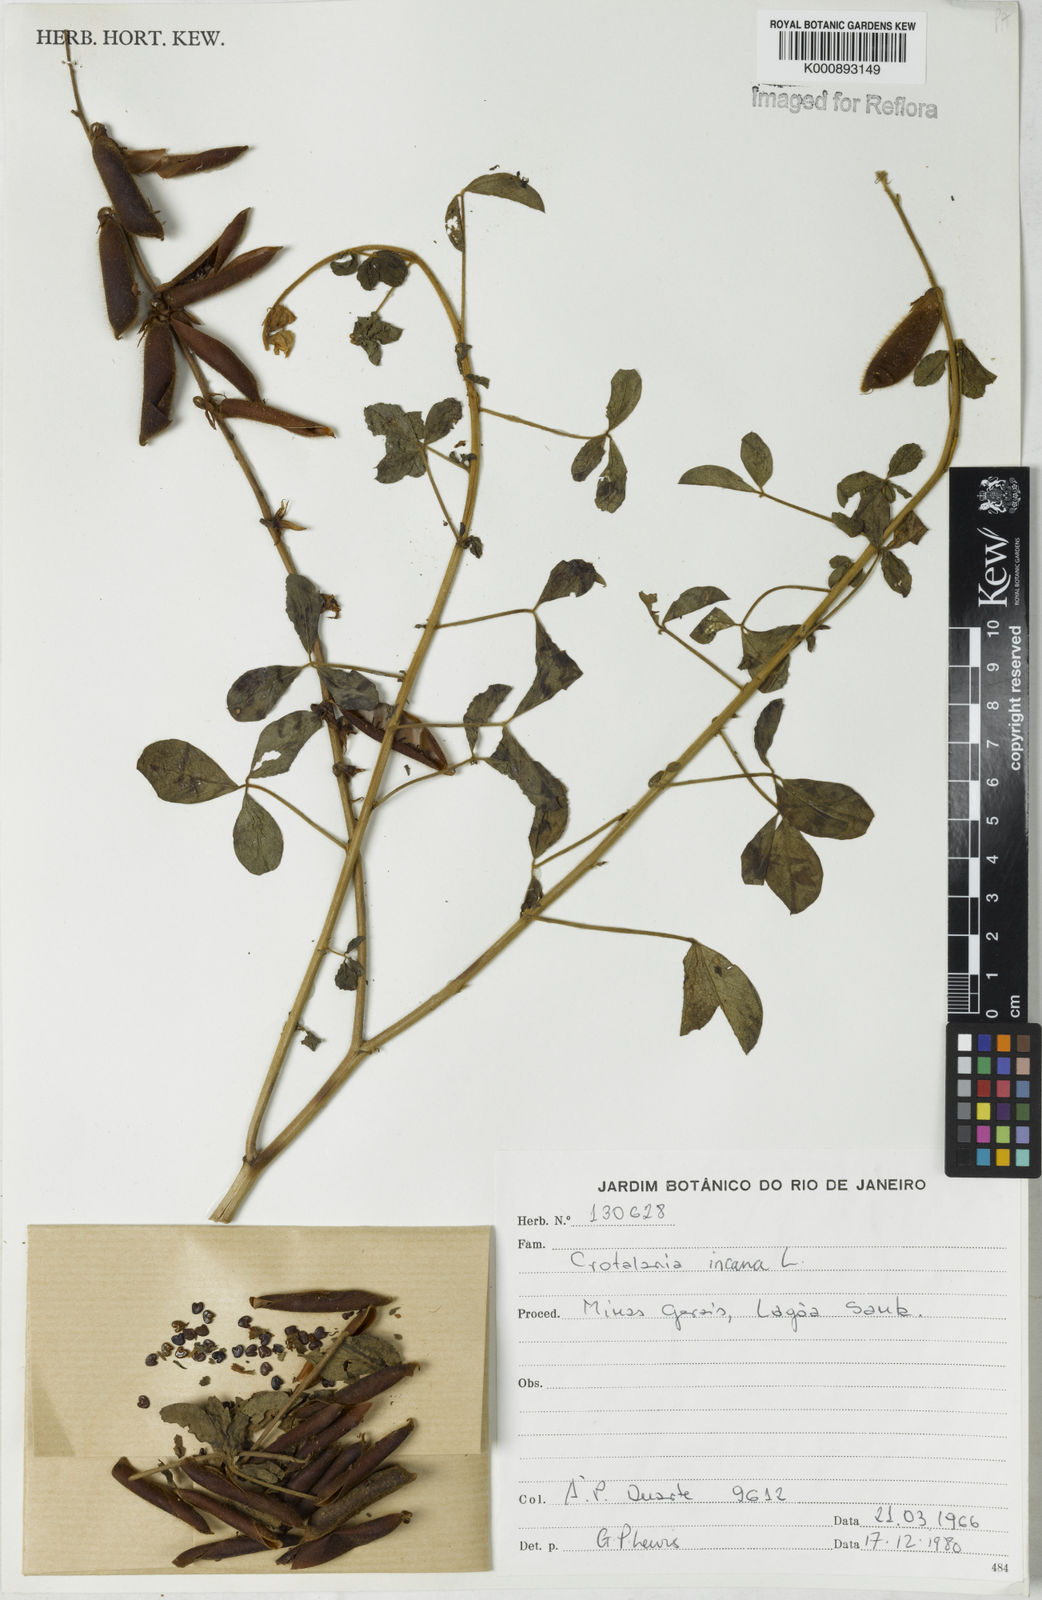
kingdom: Plantae
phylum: Tracheophyta
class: Magnoliopsida
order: Fabales
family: Fabaceae
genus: Crotalaria
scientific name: Crotalaria incana
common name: Shakeshake
